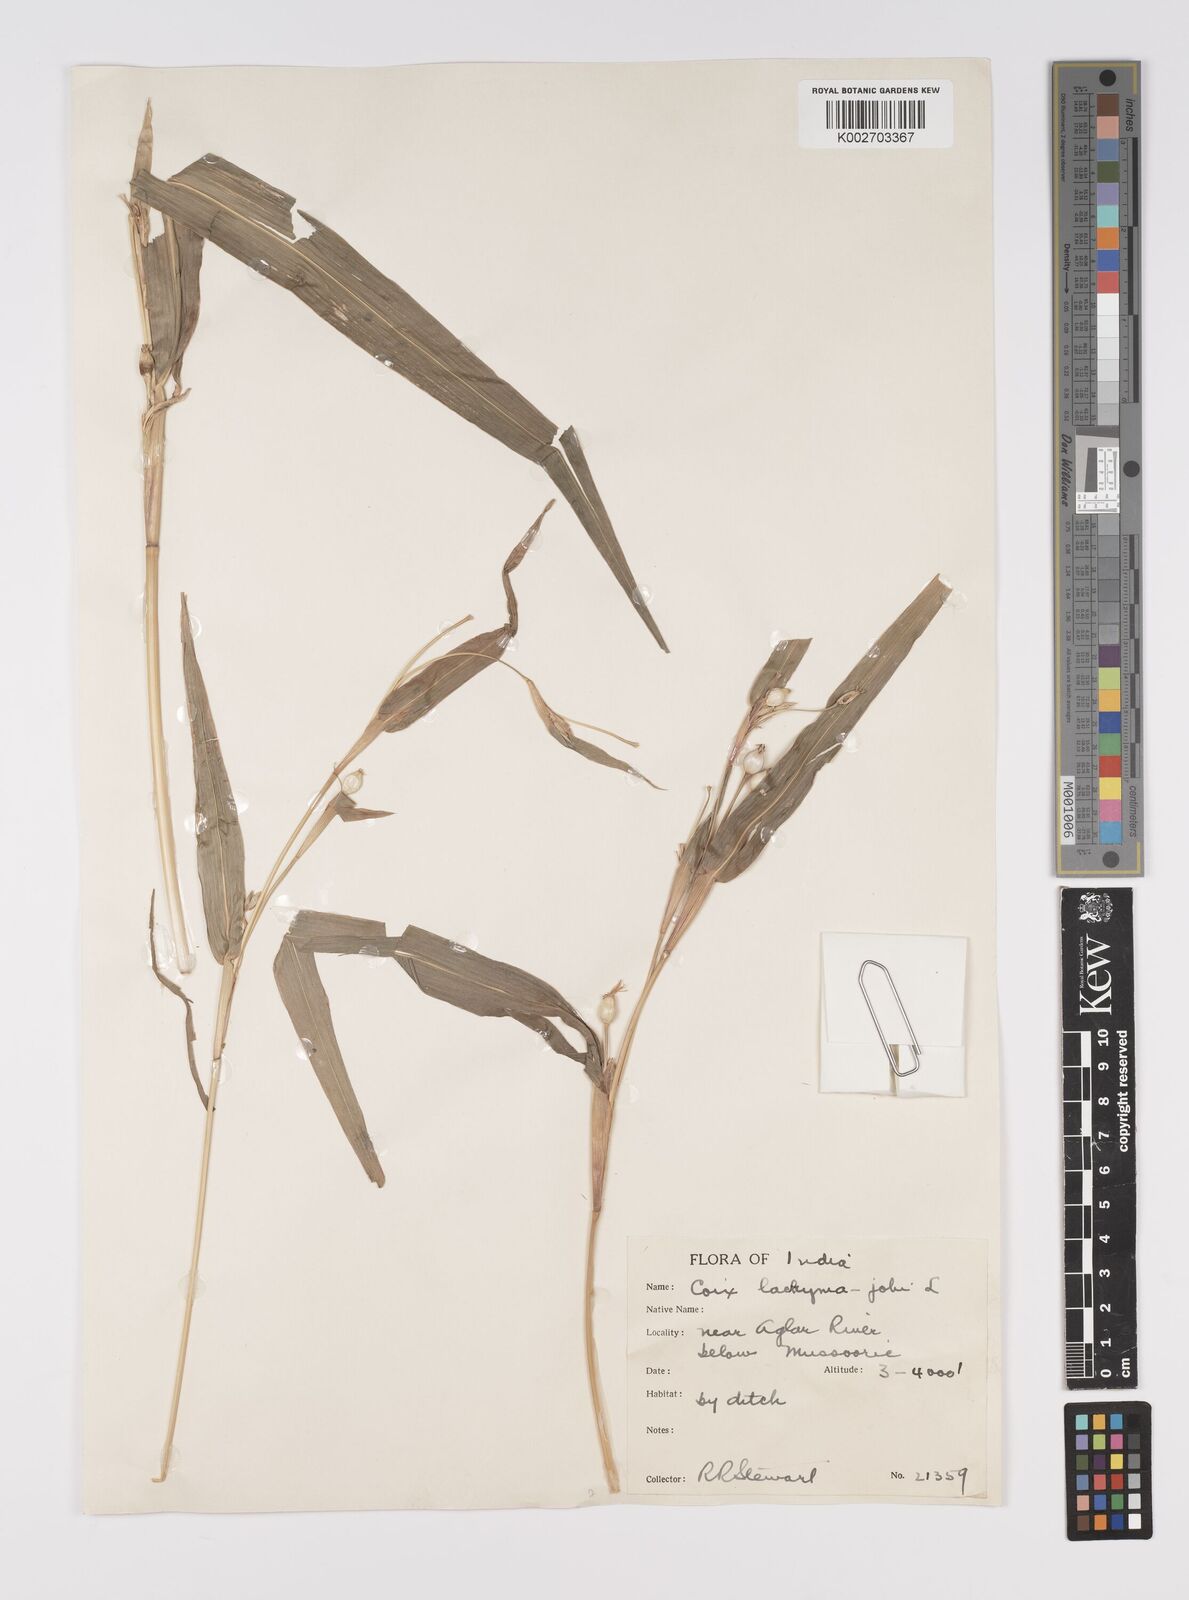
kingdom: Plantae
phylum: Tracheophyta
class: Liliopsida
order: Poales
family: Poaceae
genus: Coix
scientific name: Coix lacryma-jobi
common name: Job's tears
